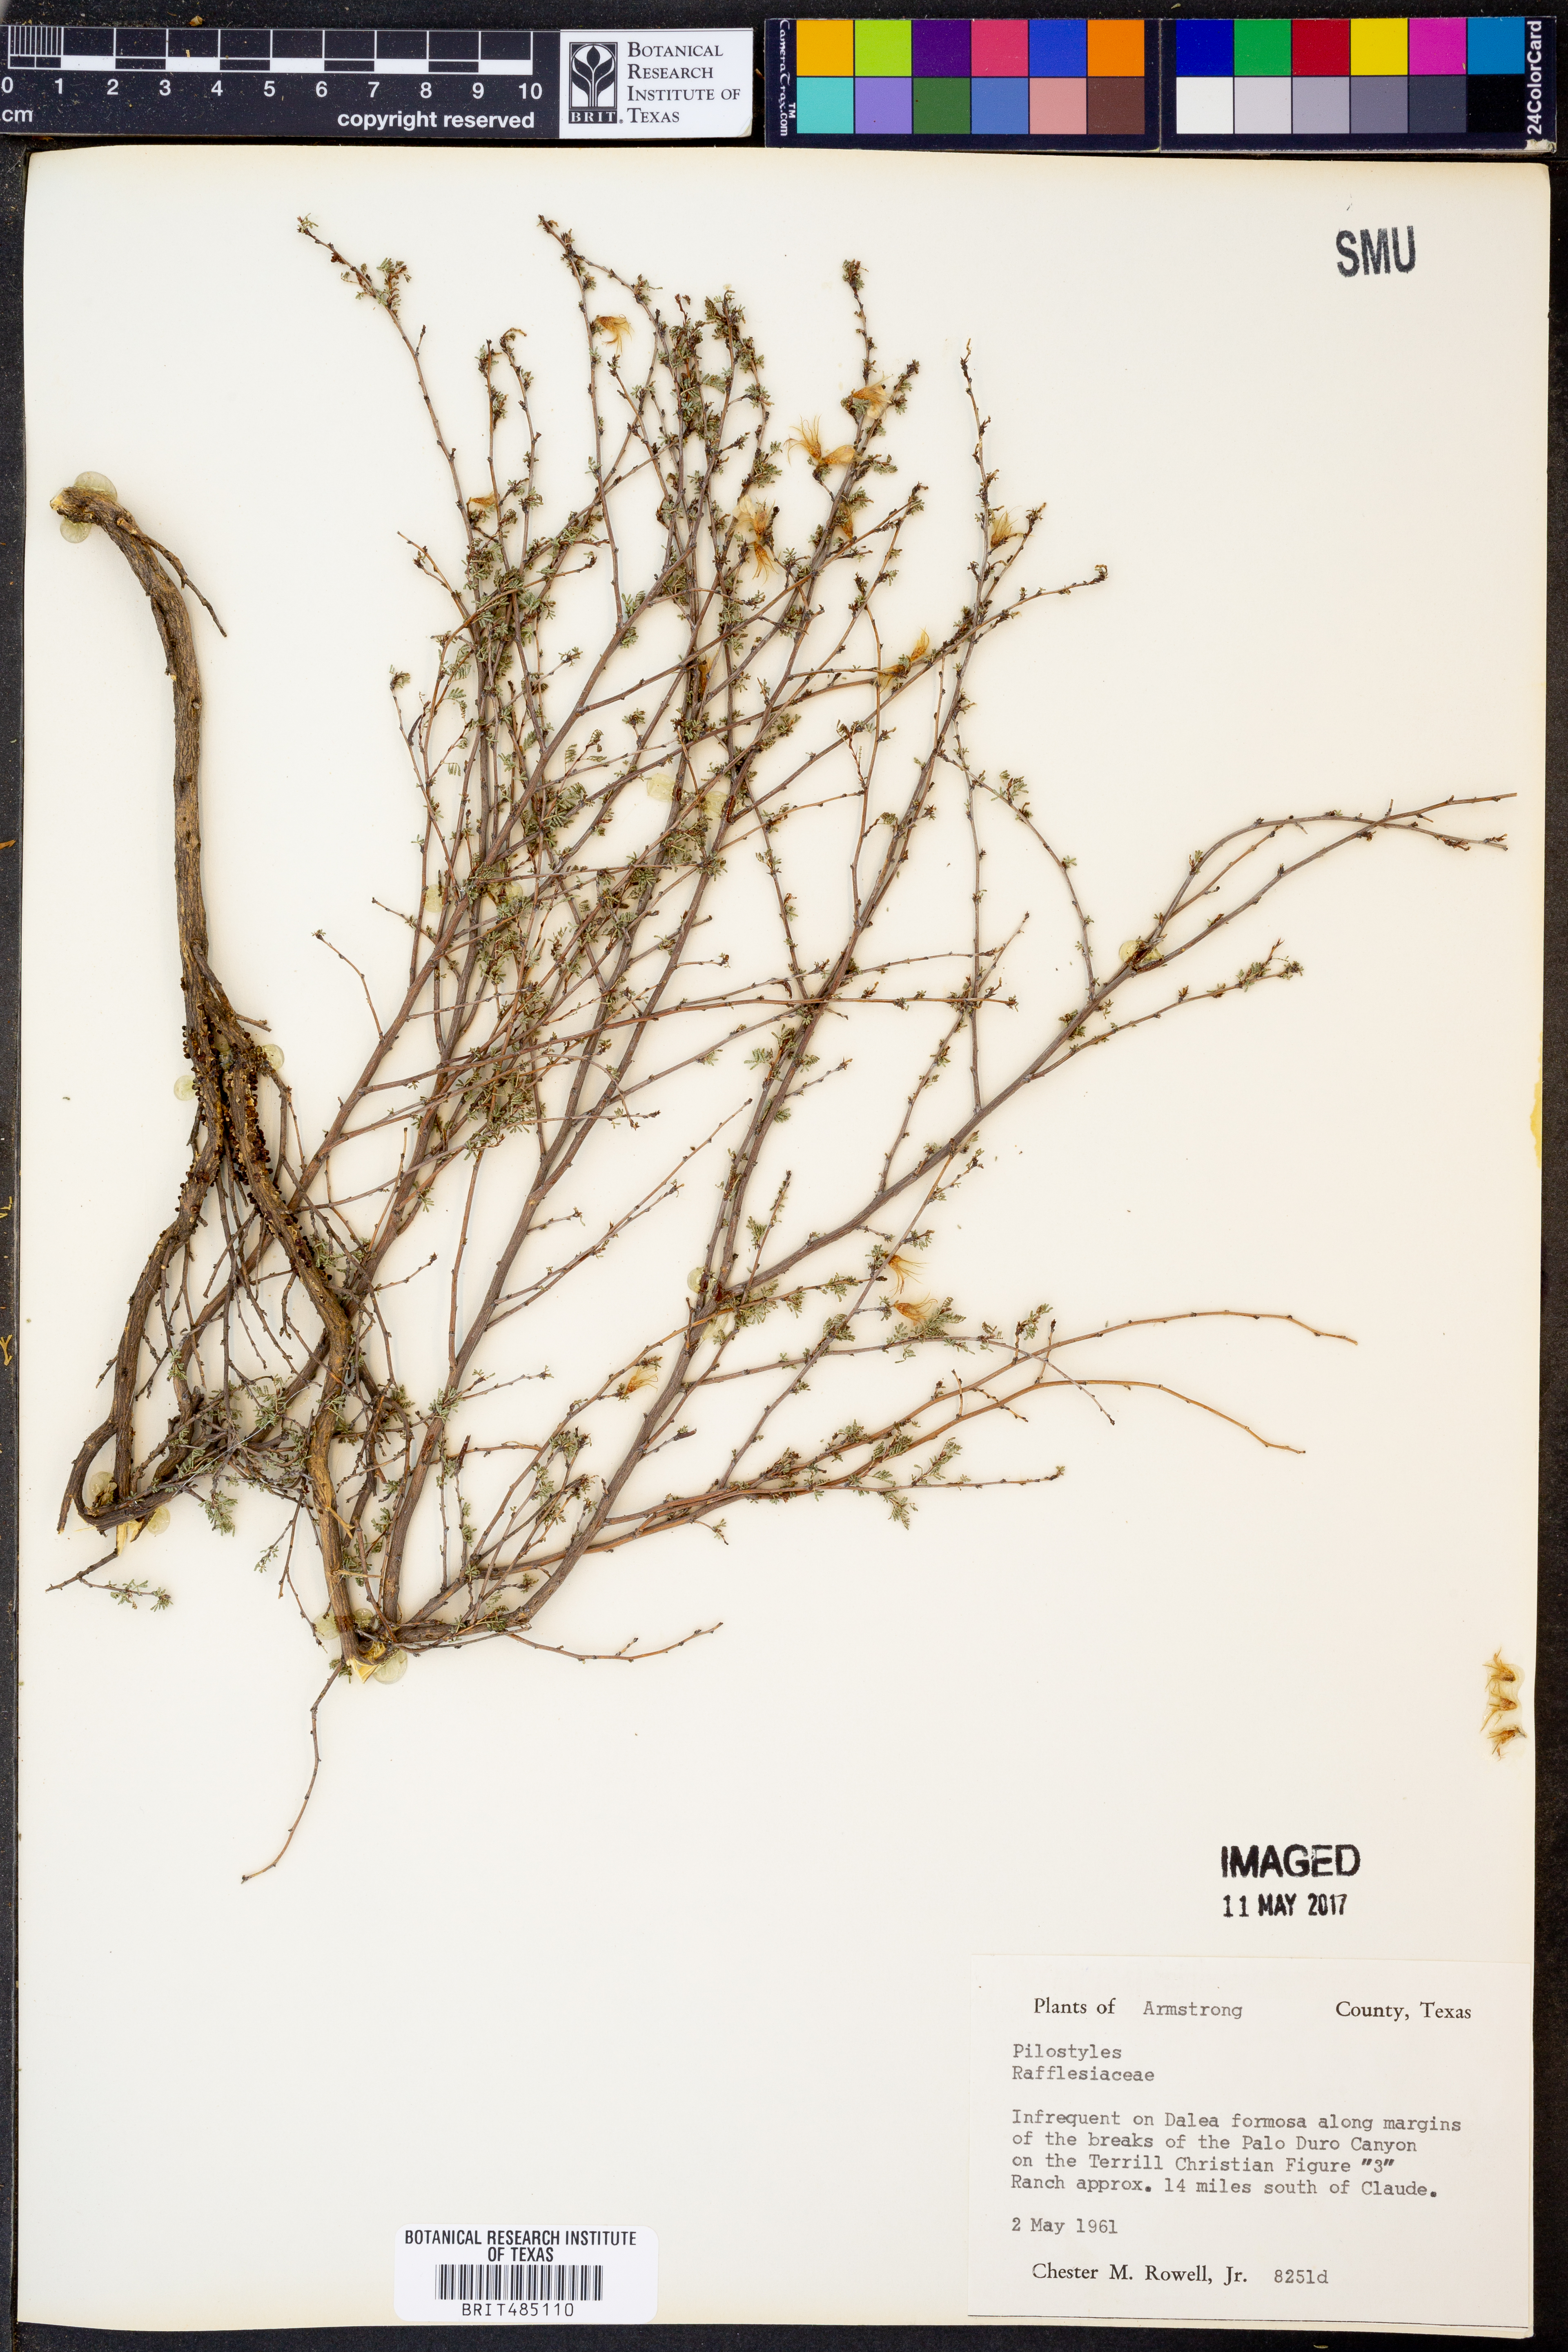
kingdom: Plantae
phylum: Tracheophyta
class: Magnoliopsida
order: Cucurbitales
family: Apodanthaceae
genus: Pilostyles
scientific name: Pilostyles
